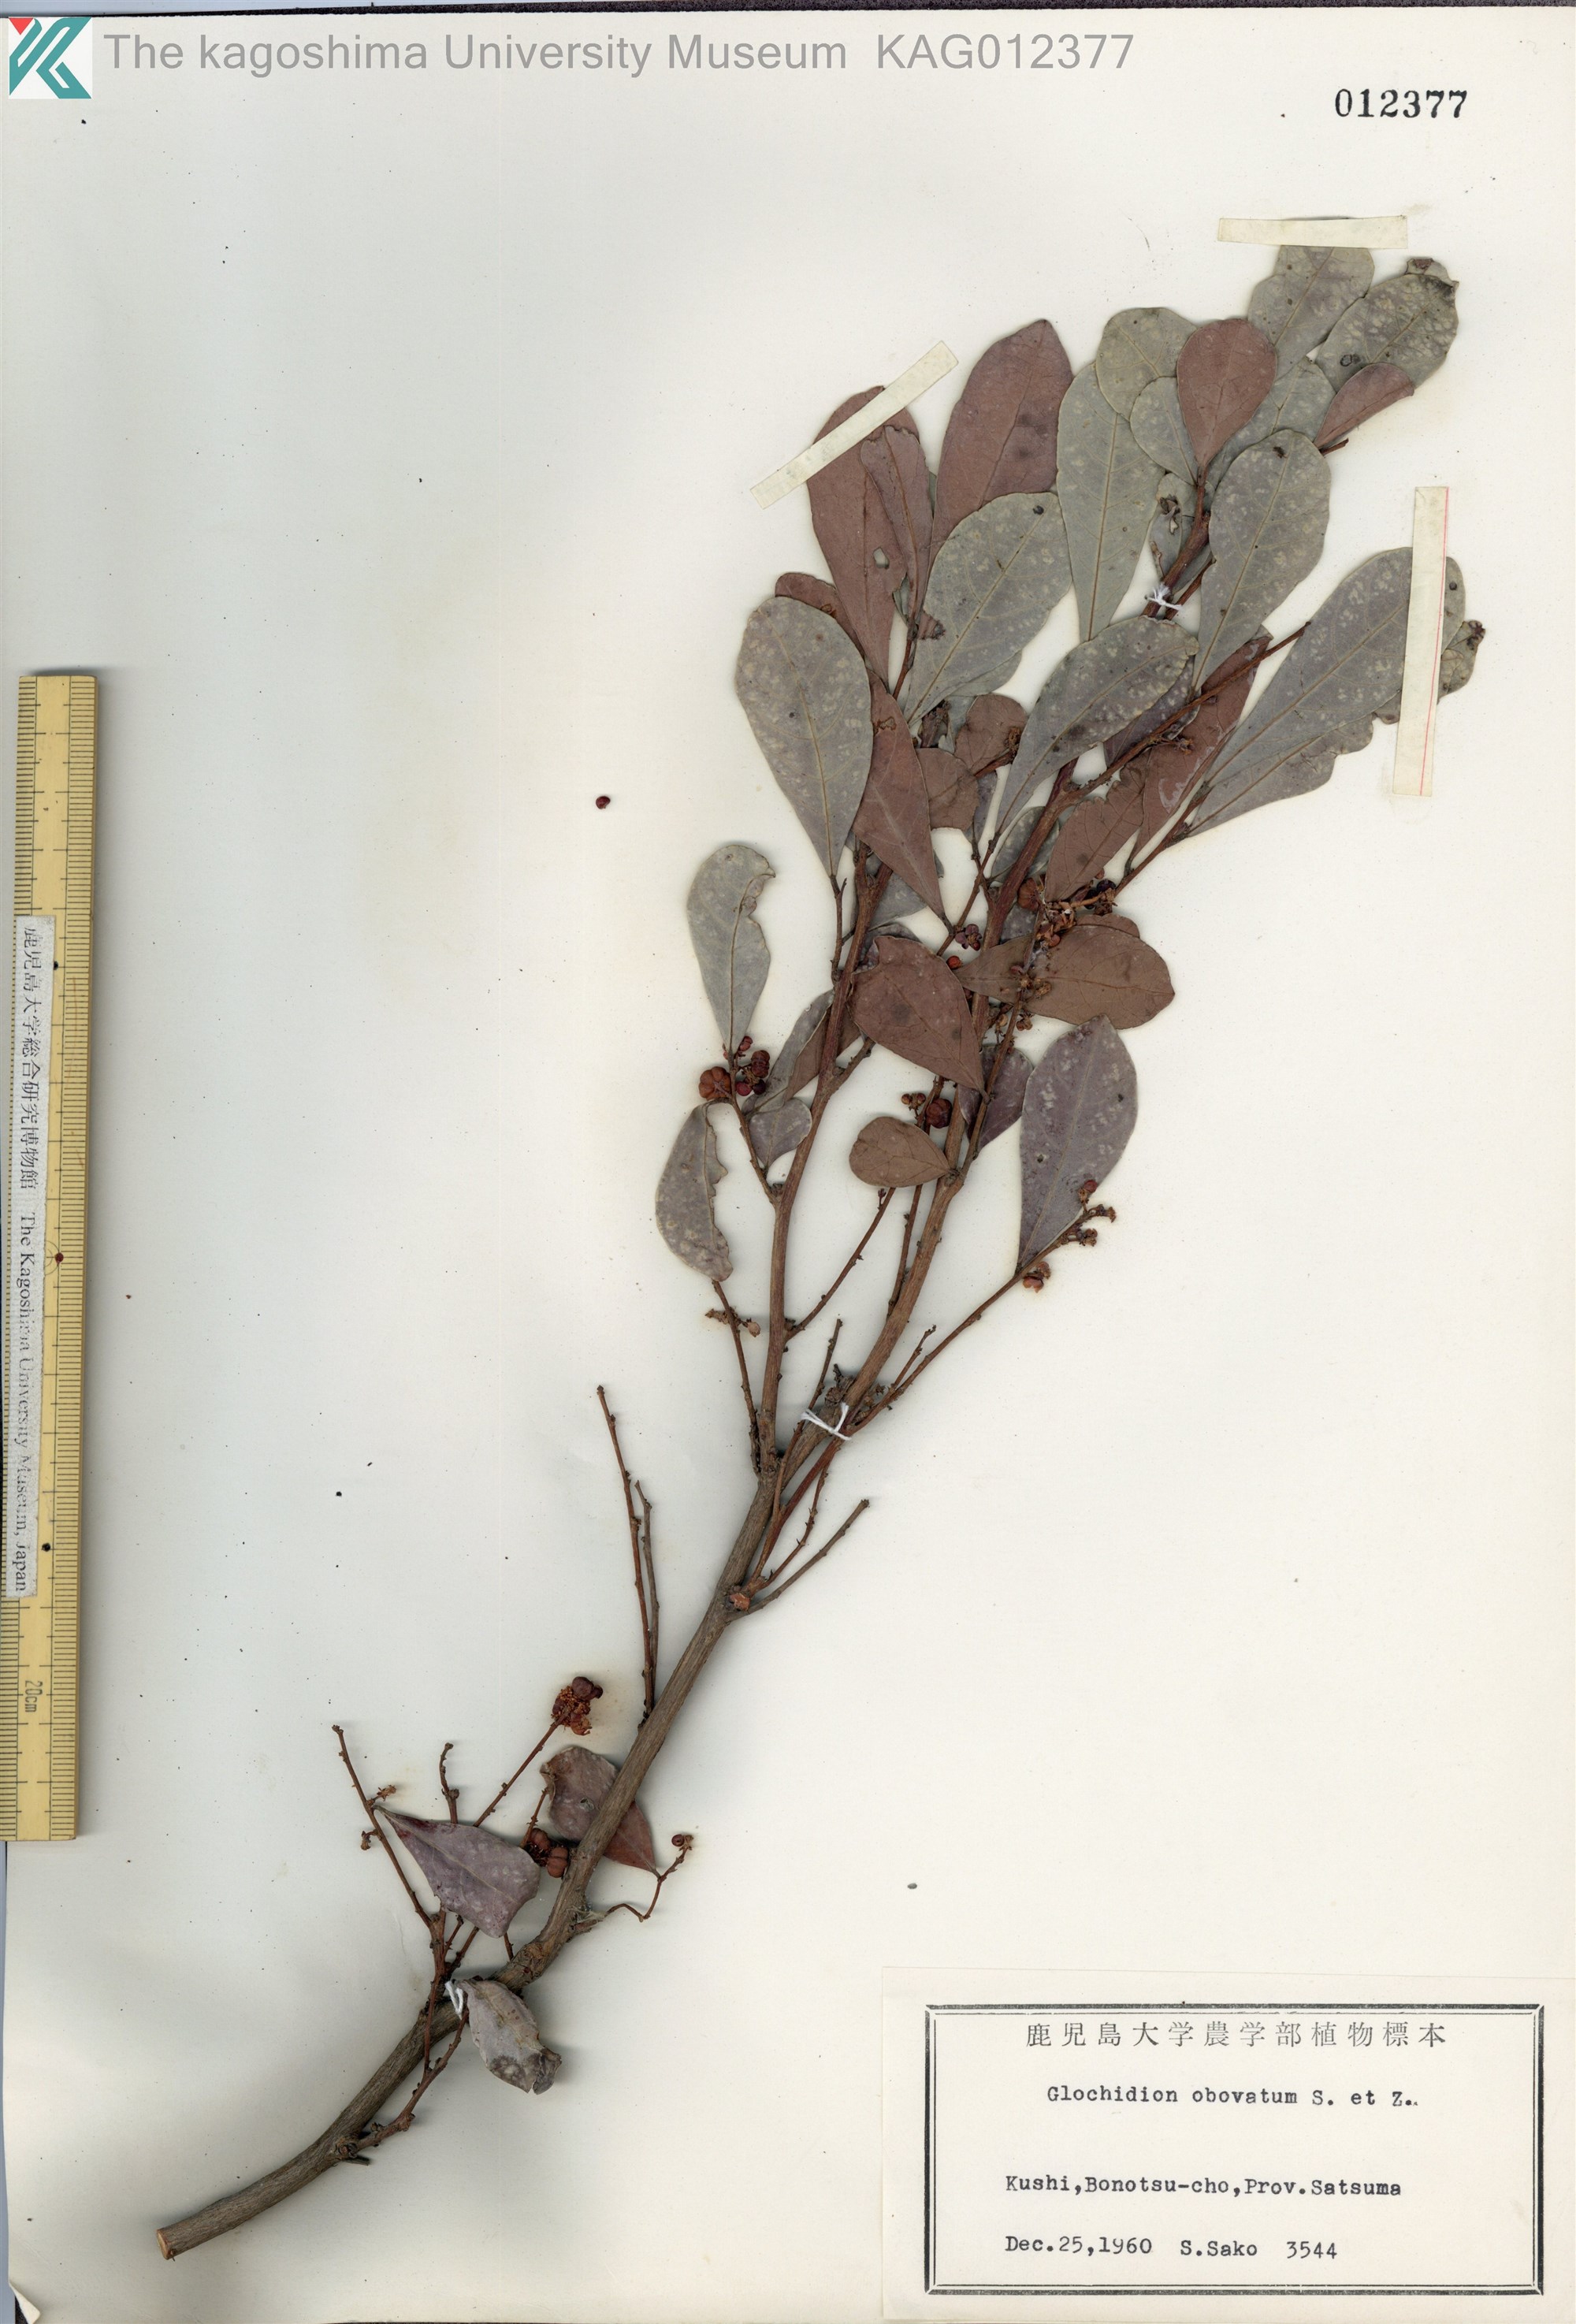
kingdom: Plantae
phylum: Tracheophyta
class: Magnoliopsida
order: Malpighiales
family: Phyllanthaceae
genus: Glochidion
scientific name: Glochidion obovatum
